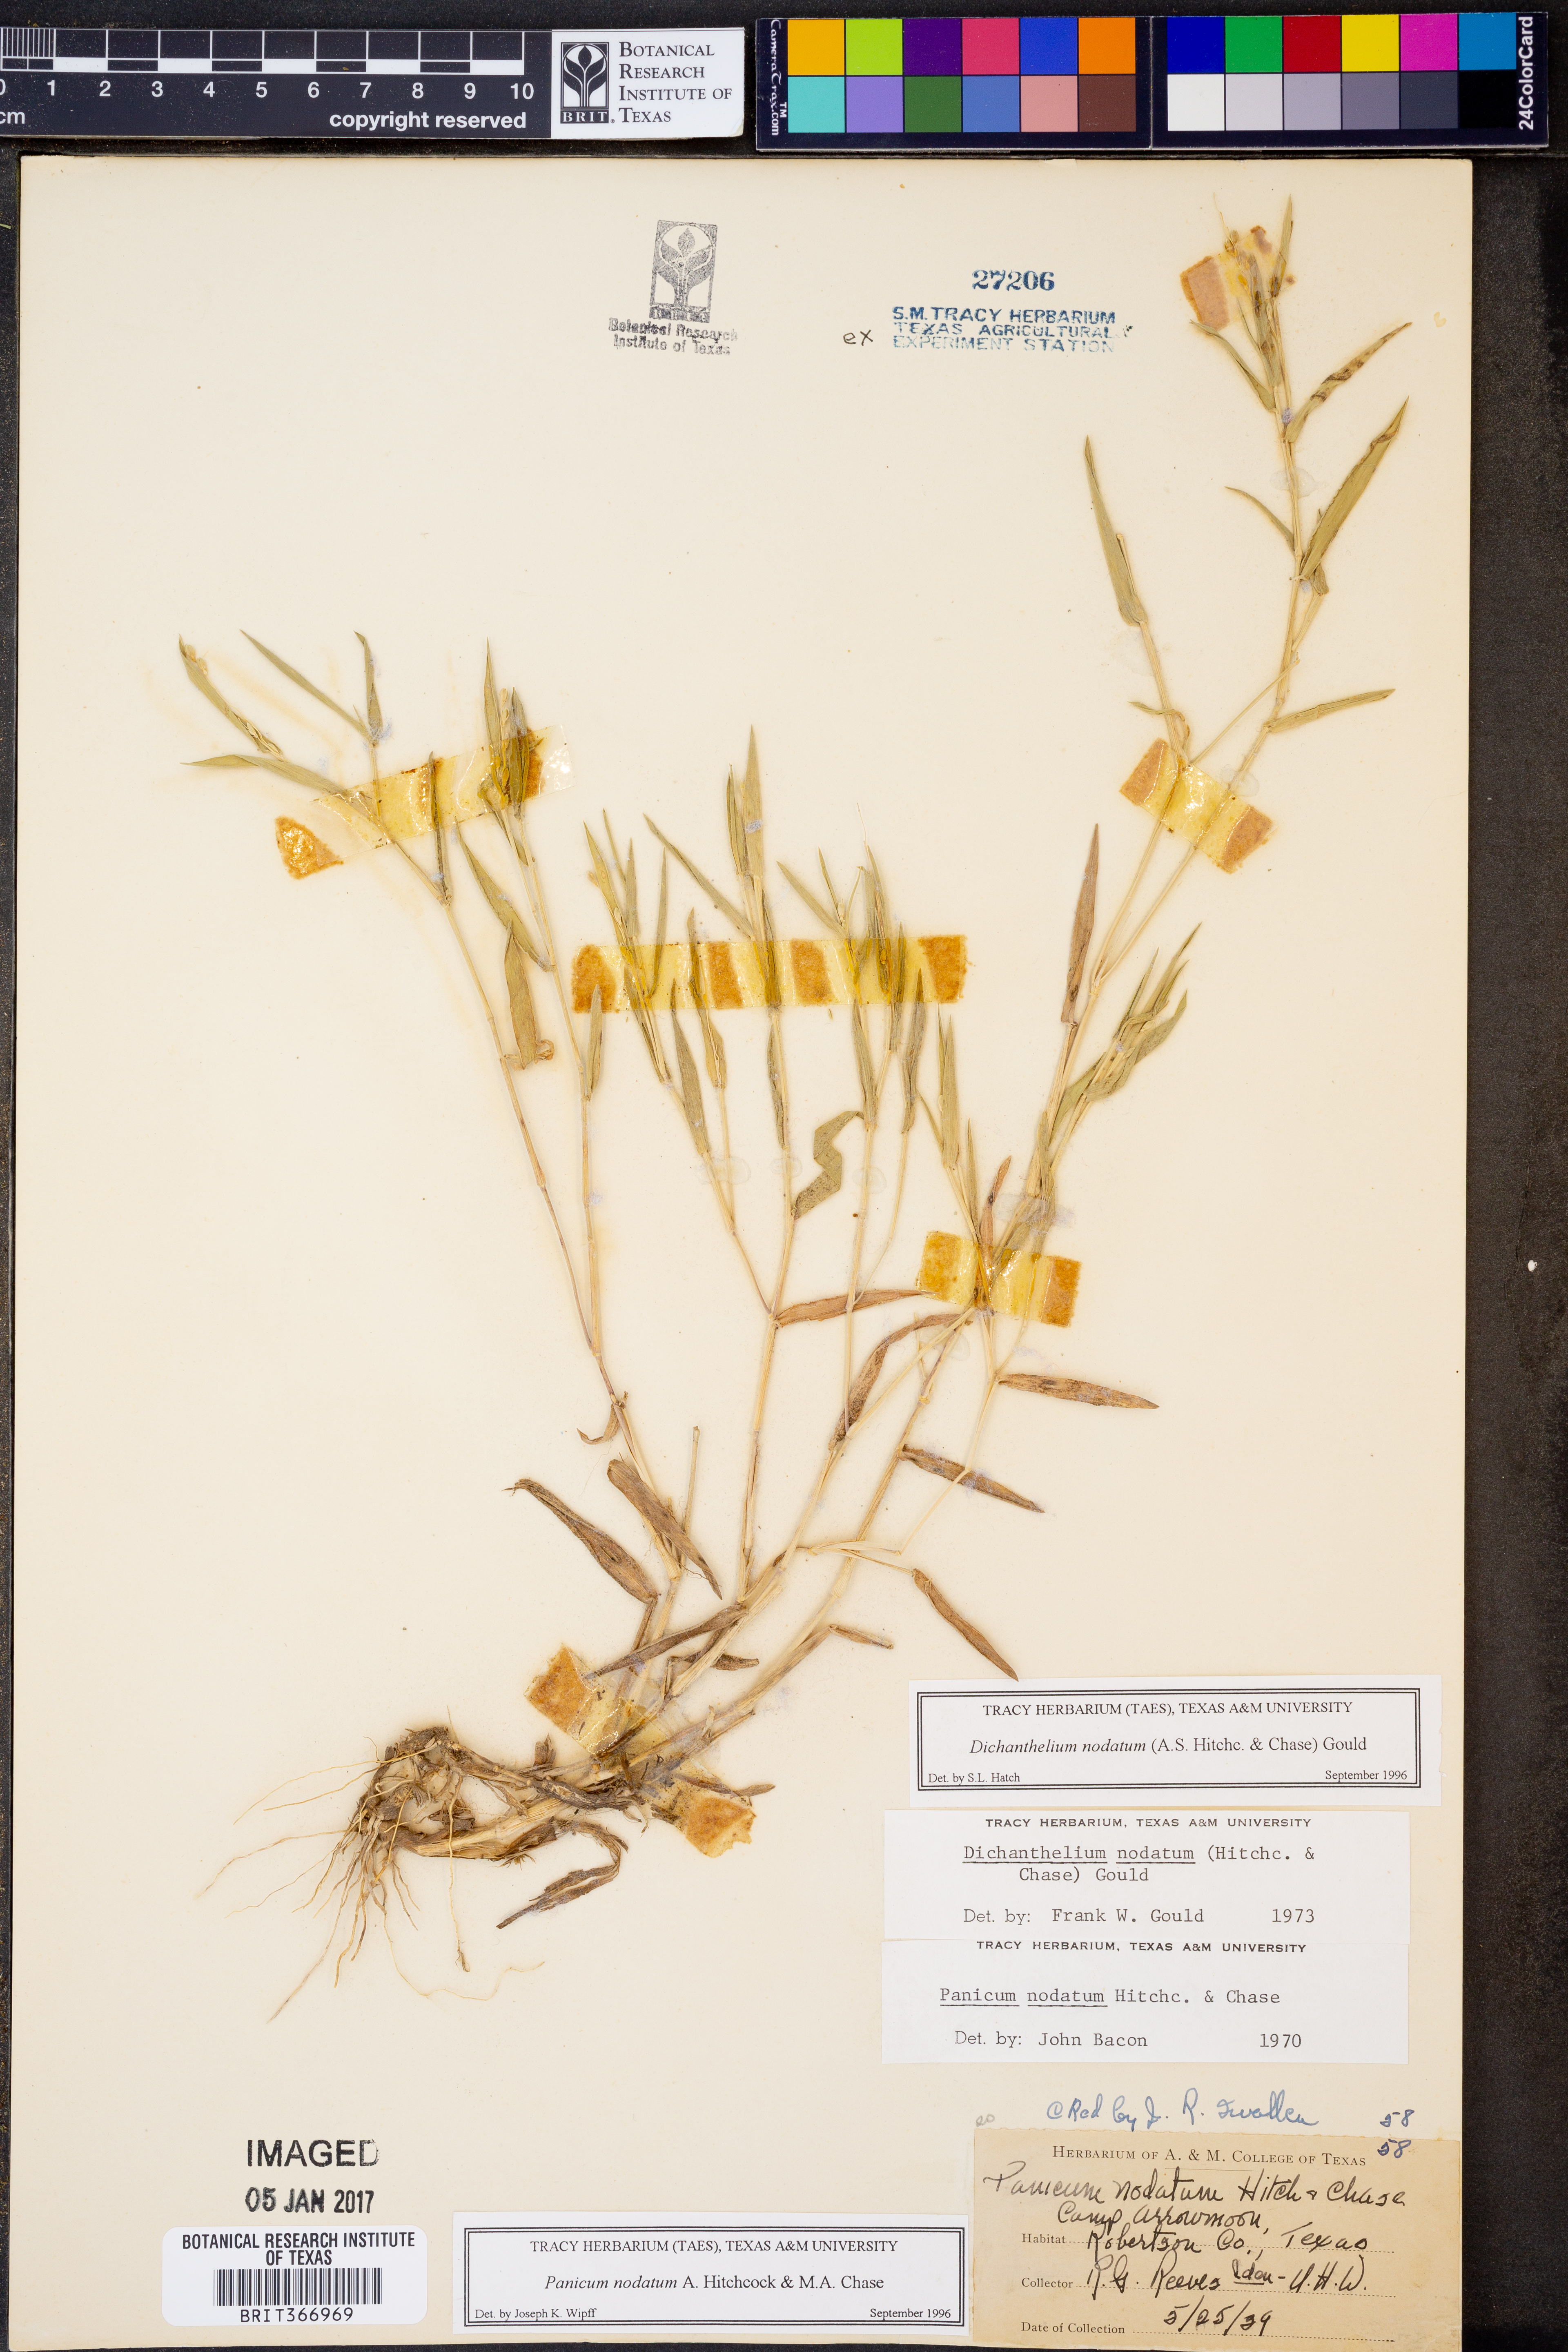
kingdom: Plantae
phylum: Tracheophyta
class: Liliopsida
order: Poales
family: Poaceae
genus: Dichanthelium
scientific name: Dichanthelium nodatum
